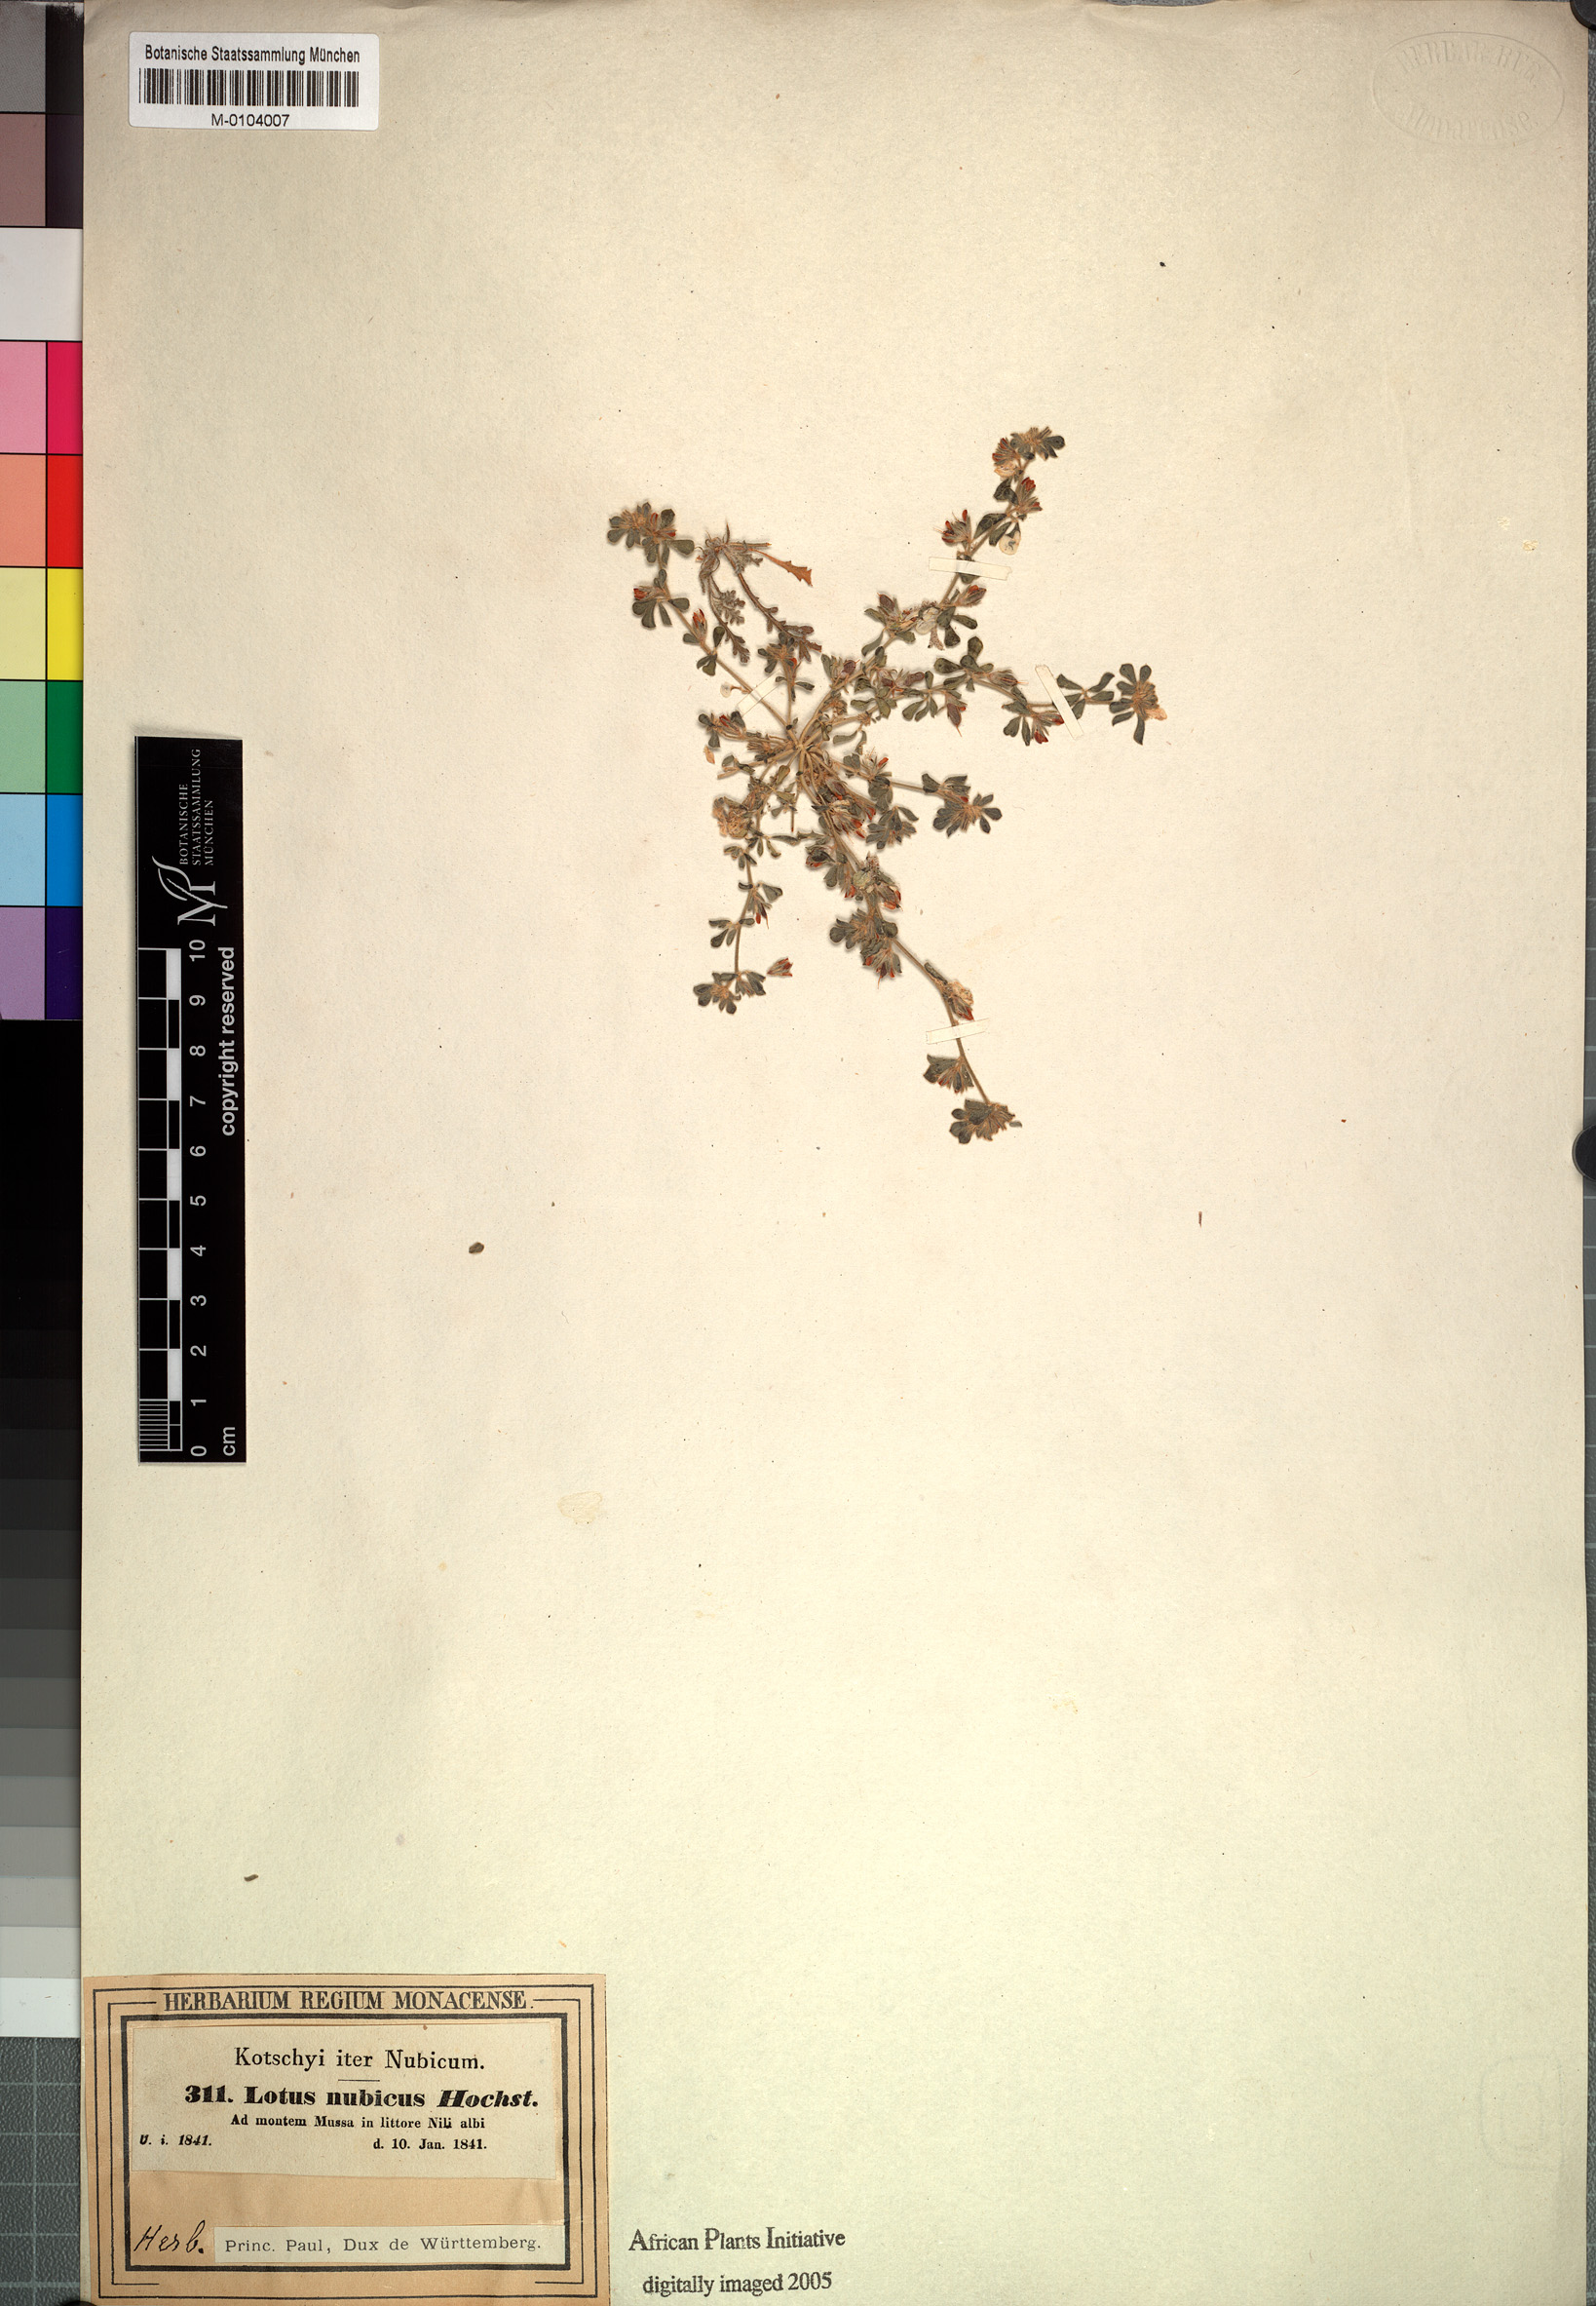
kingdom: Plantae
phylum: Tracheophyta
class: Magnoliopsida
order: Fabales
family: Fabaceae
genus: Lotus
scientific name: Lotus nubicus
